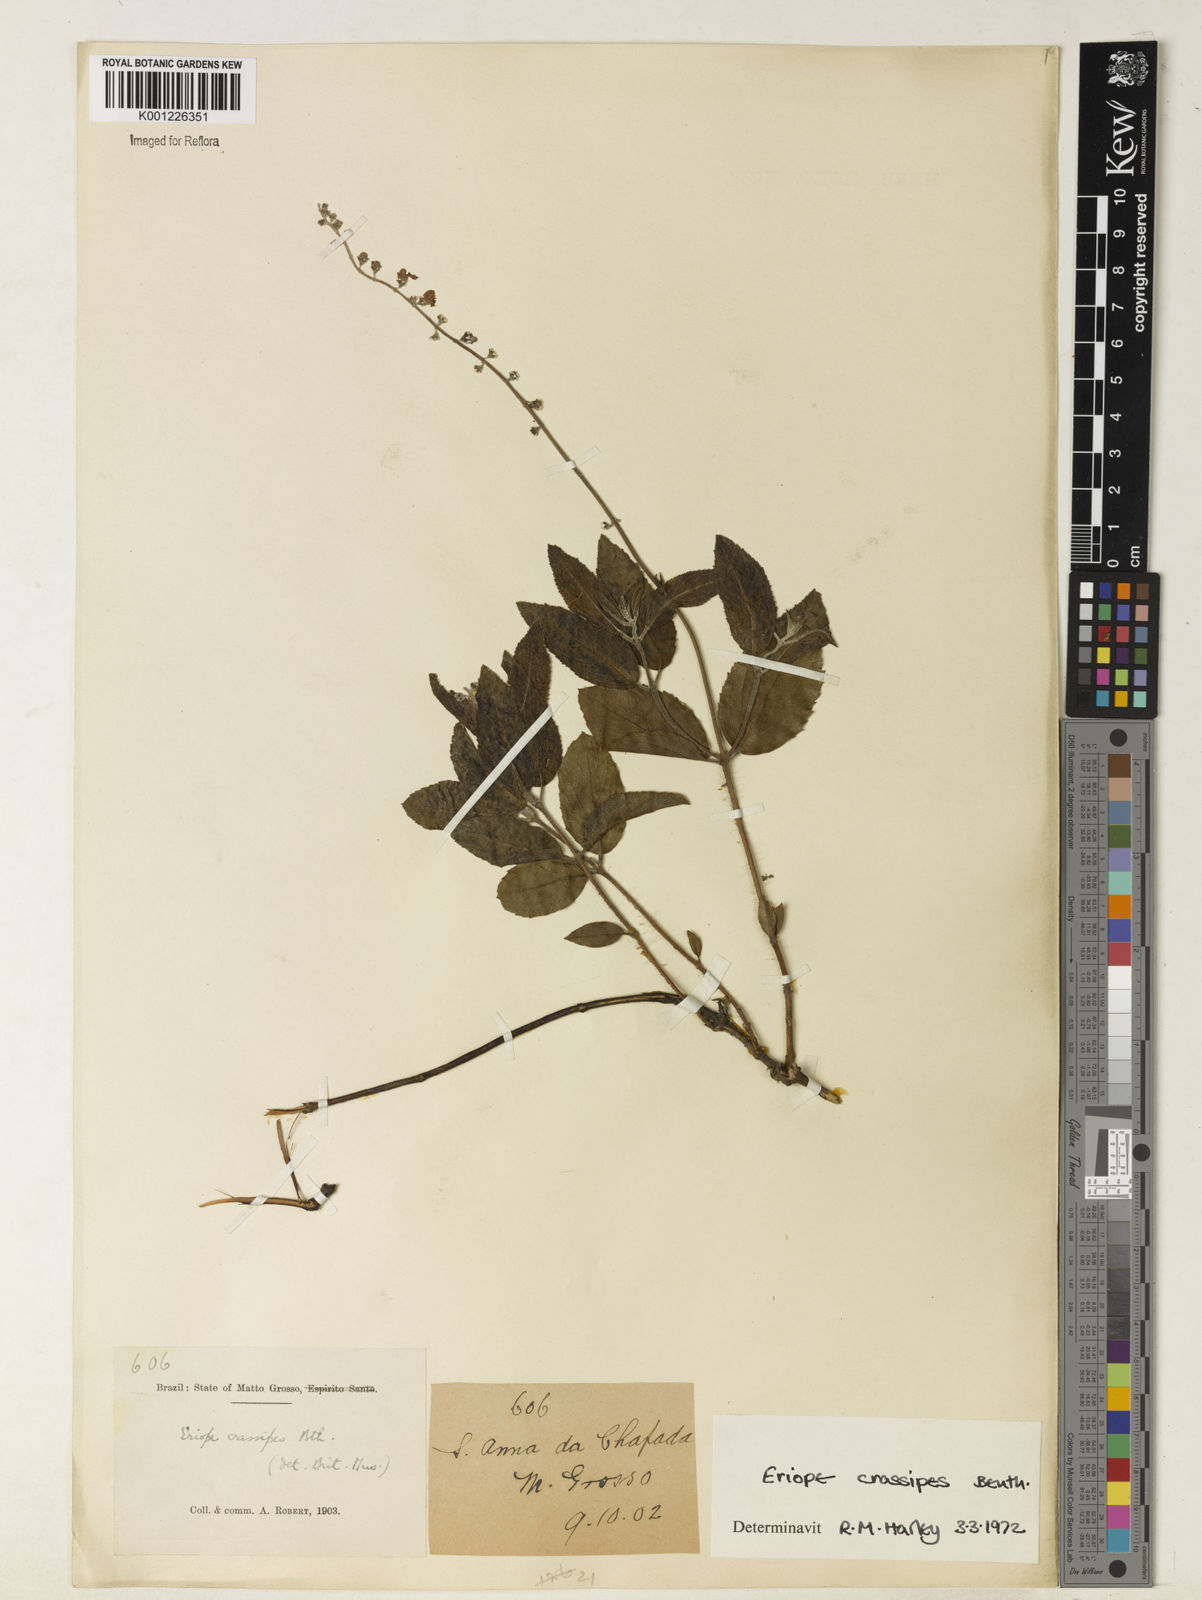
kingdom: Plantae
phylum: Tracheophyta
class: Magnoliopsida
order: Lamiales
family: Lamiaceae
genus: Eriope
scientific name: Eriope crassipes
